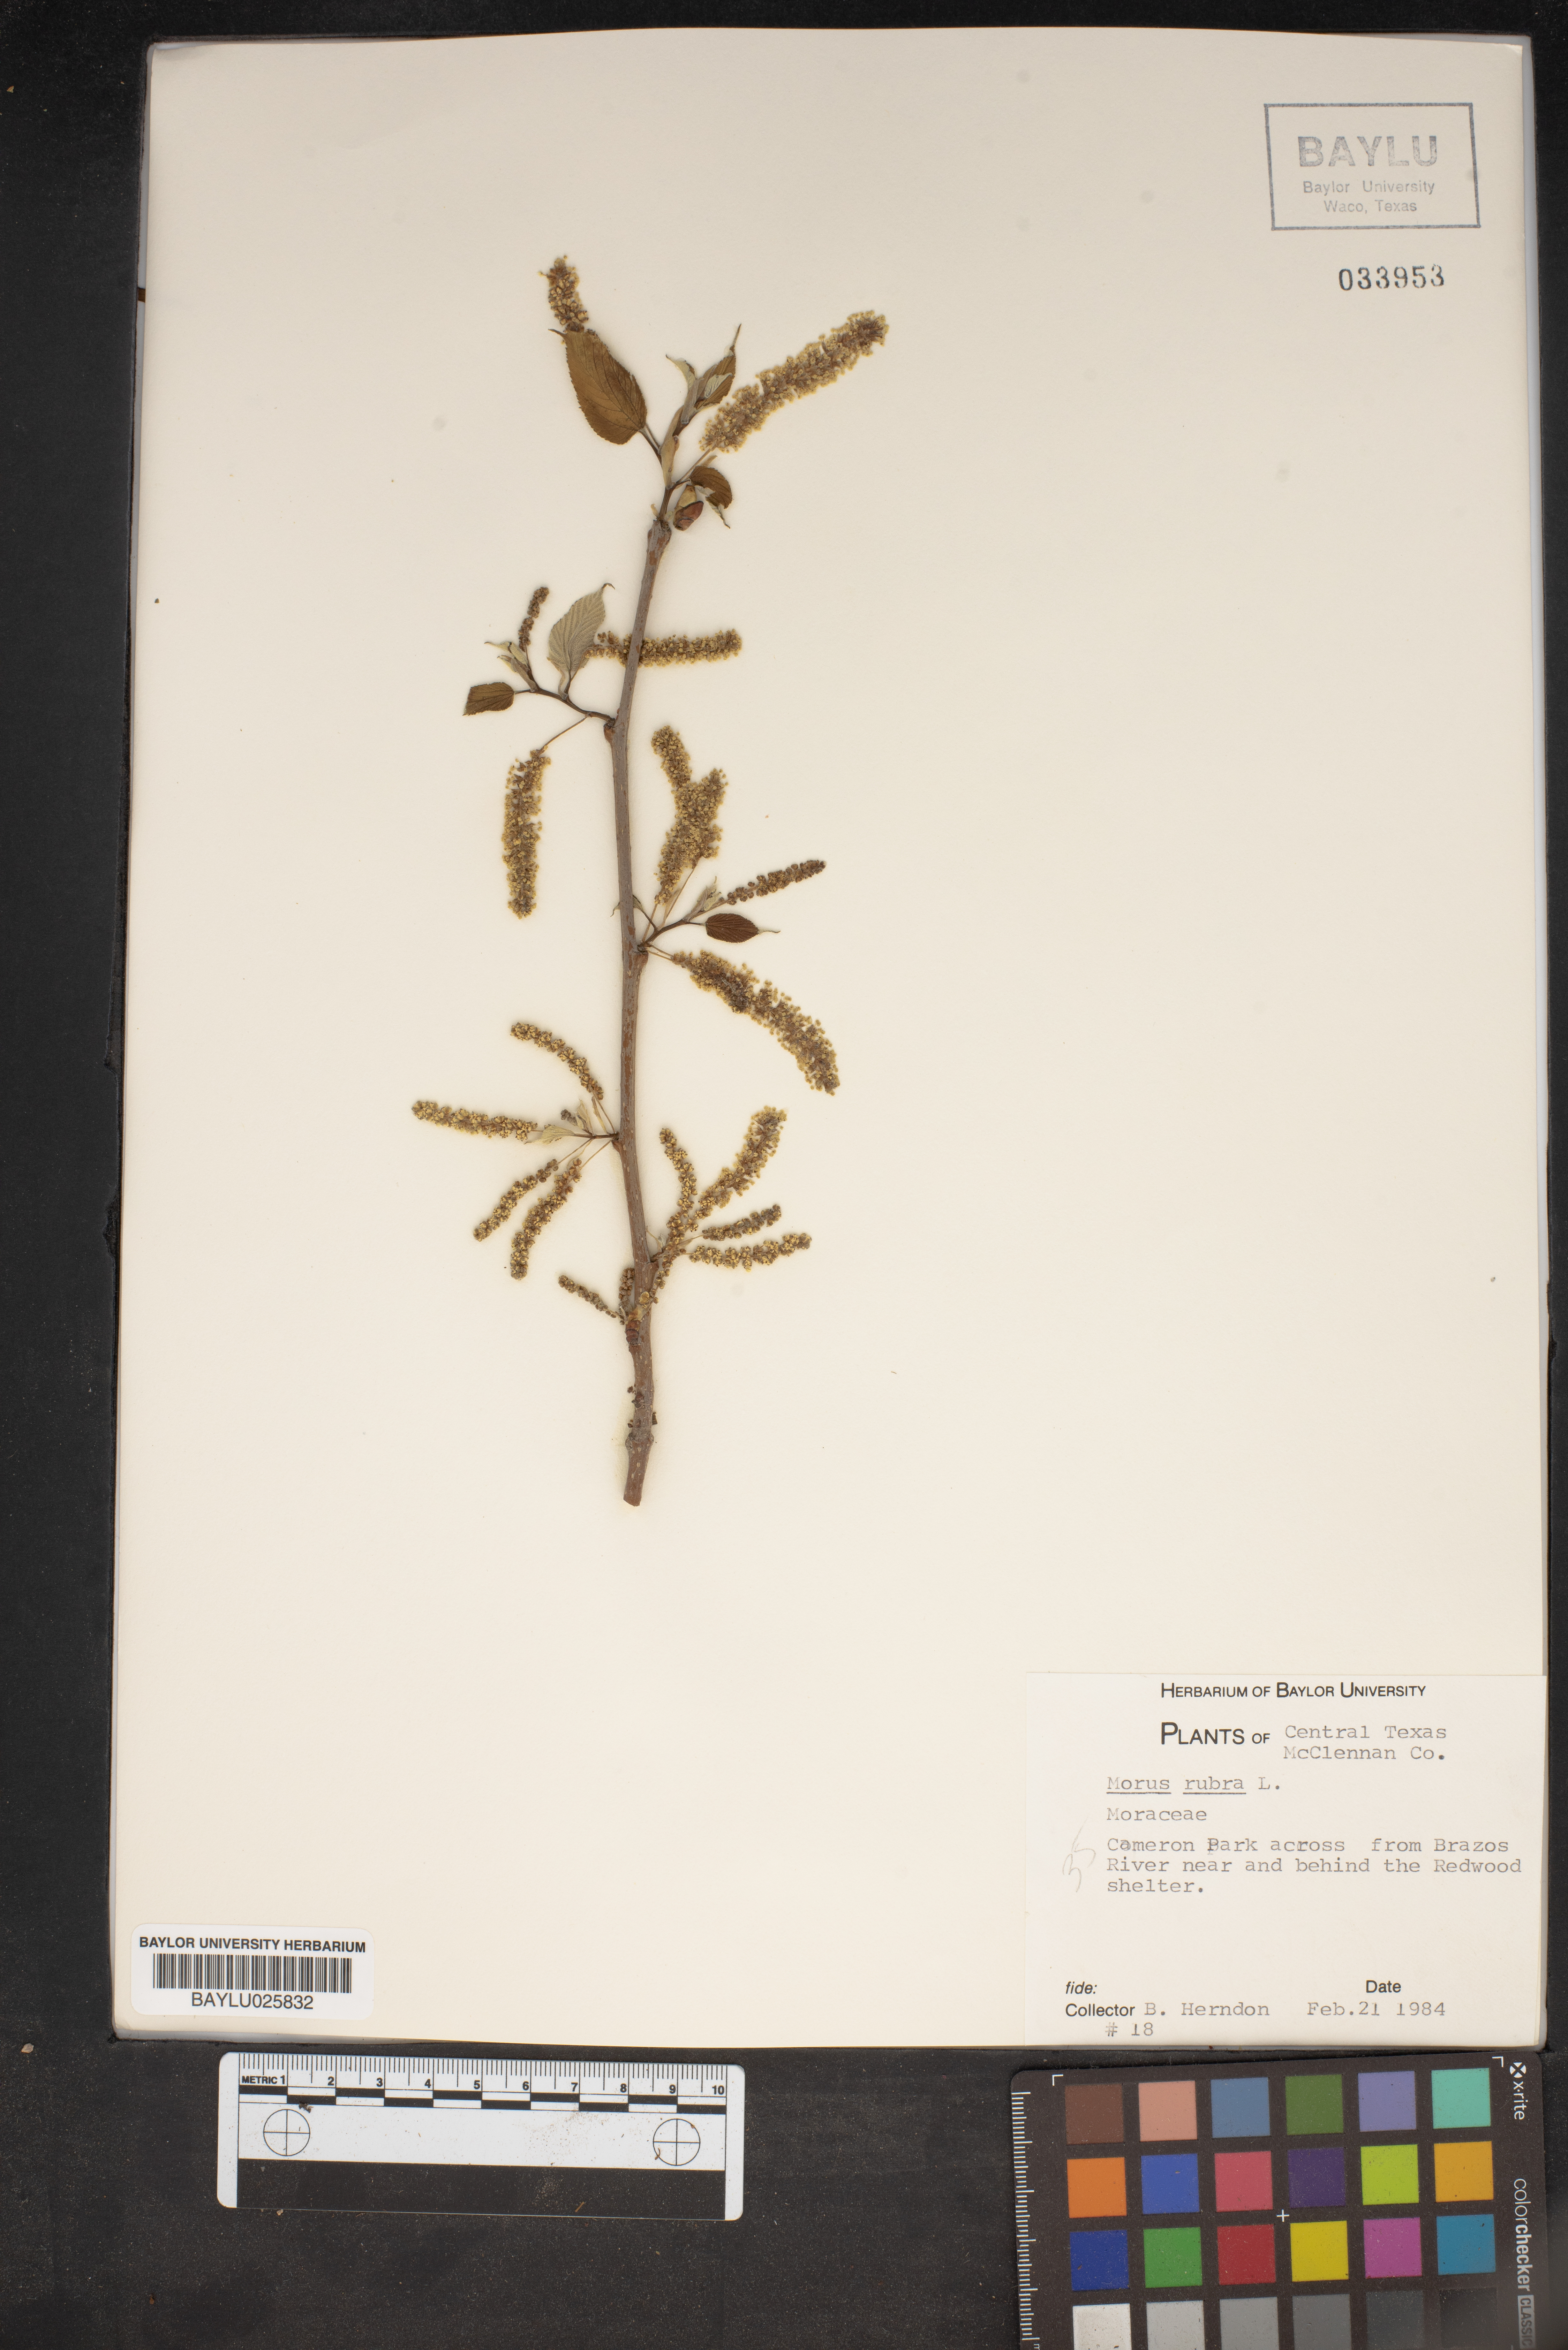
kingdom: Plantae
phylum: Tracheophyta
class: Magnoliopsida
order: Rosales
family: Moraceae
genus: Morus
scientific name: Morus rubra
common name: Red mulberry
